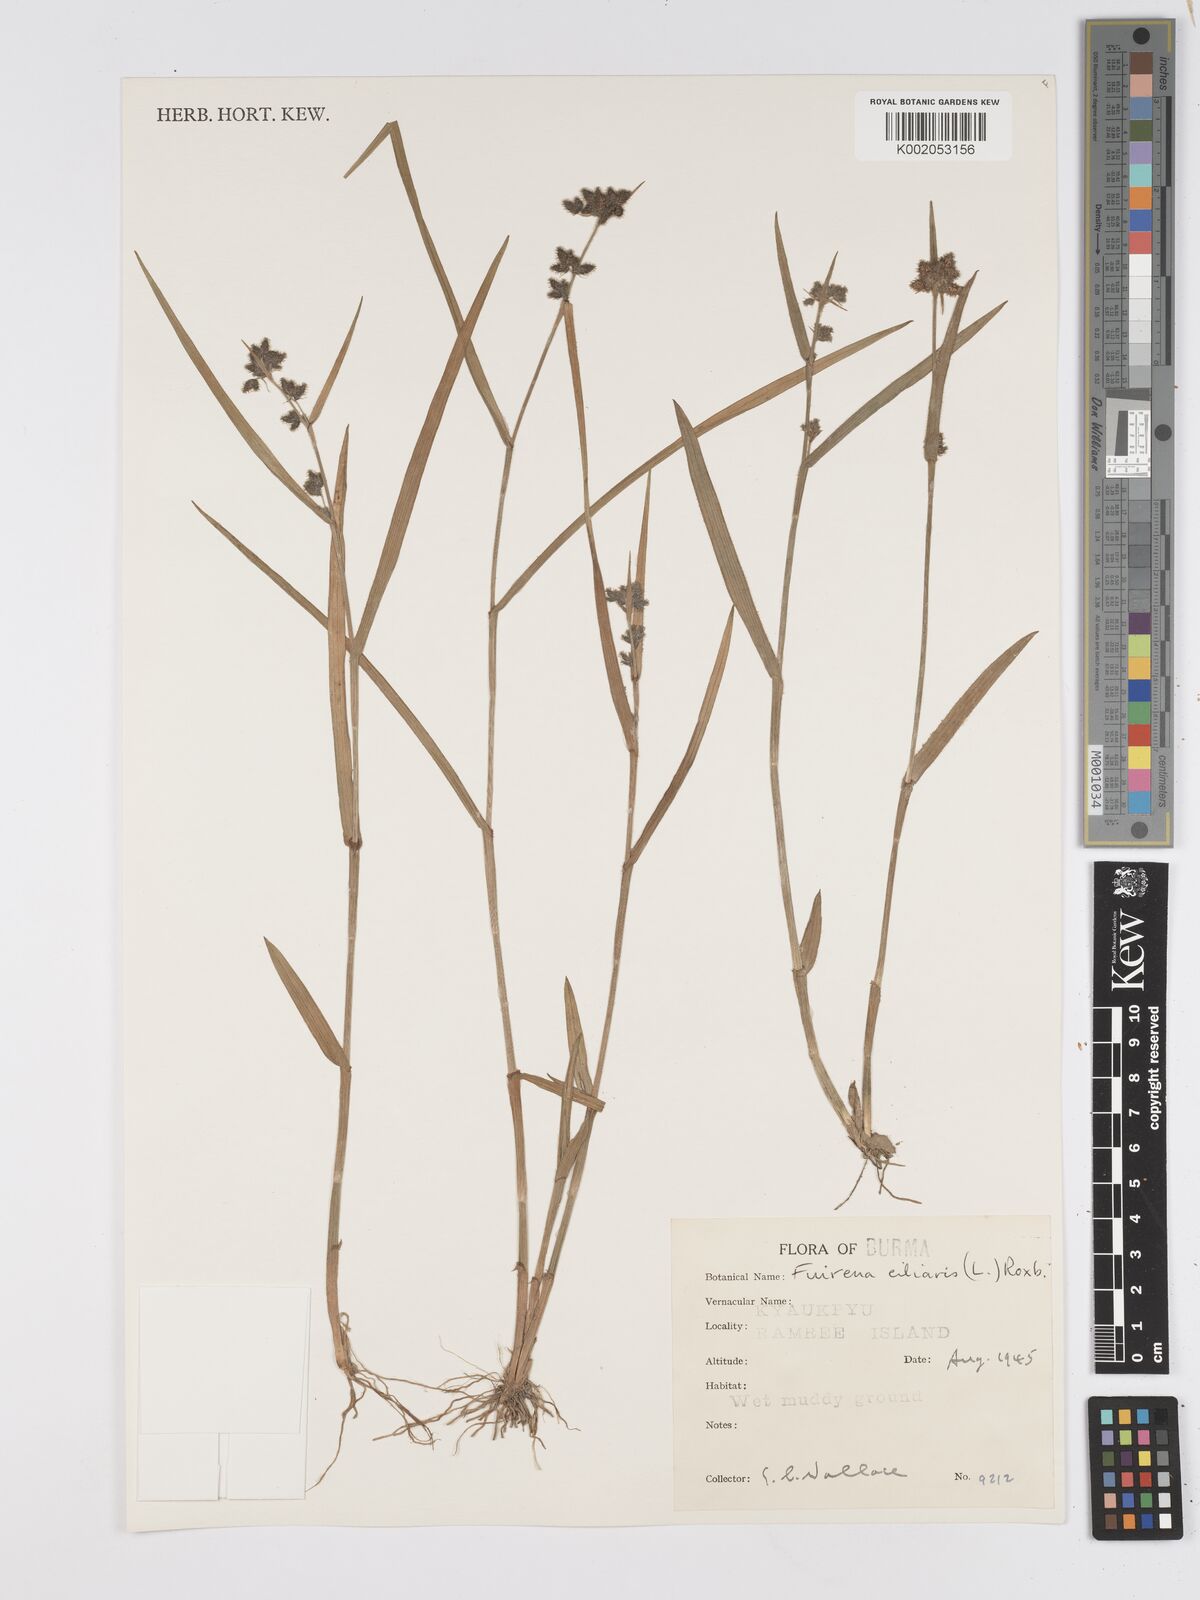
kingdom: Plantae
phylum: Tracheophyta
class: Liliopsida
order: Poales
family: Cyperaceae
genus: Fuirena
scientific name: Fuirena ciliaris
